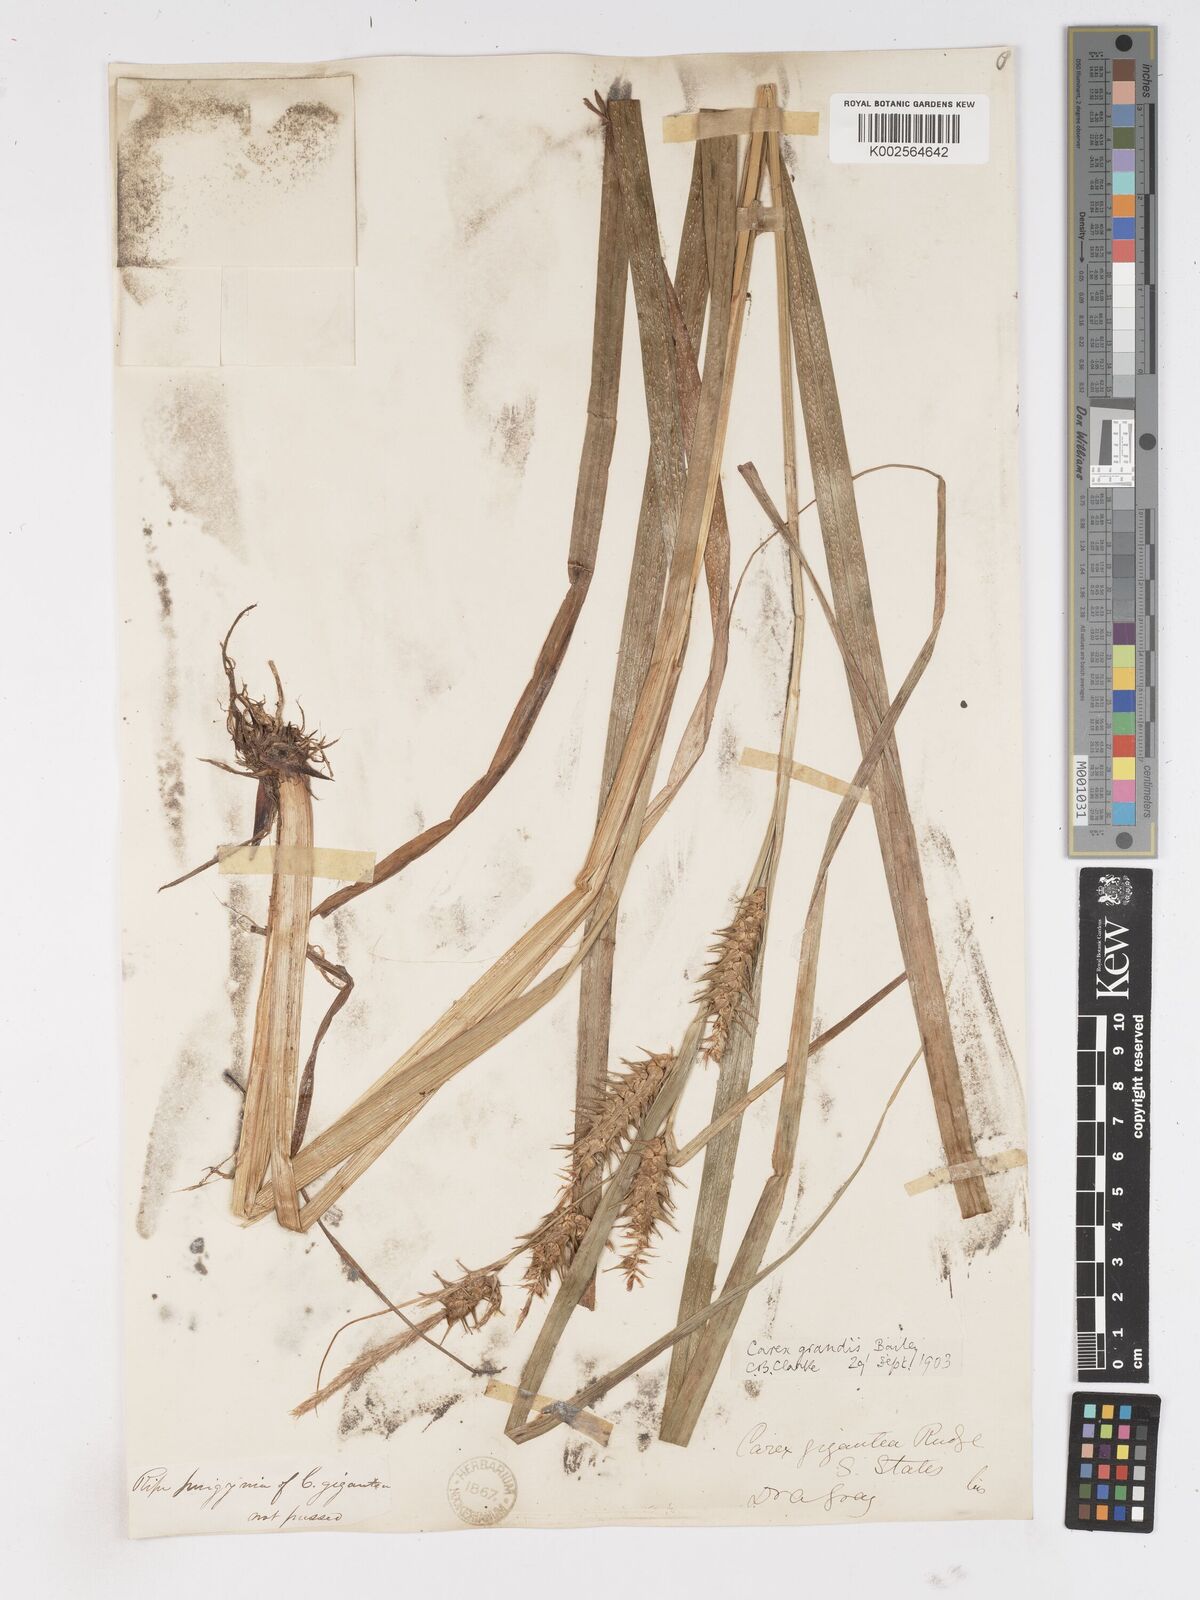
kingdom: Plantae
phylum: Tracheophyta
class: Liliopsida
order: Poales
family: Cyperaceae
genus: Carex
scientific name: Carex gigantea
